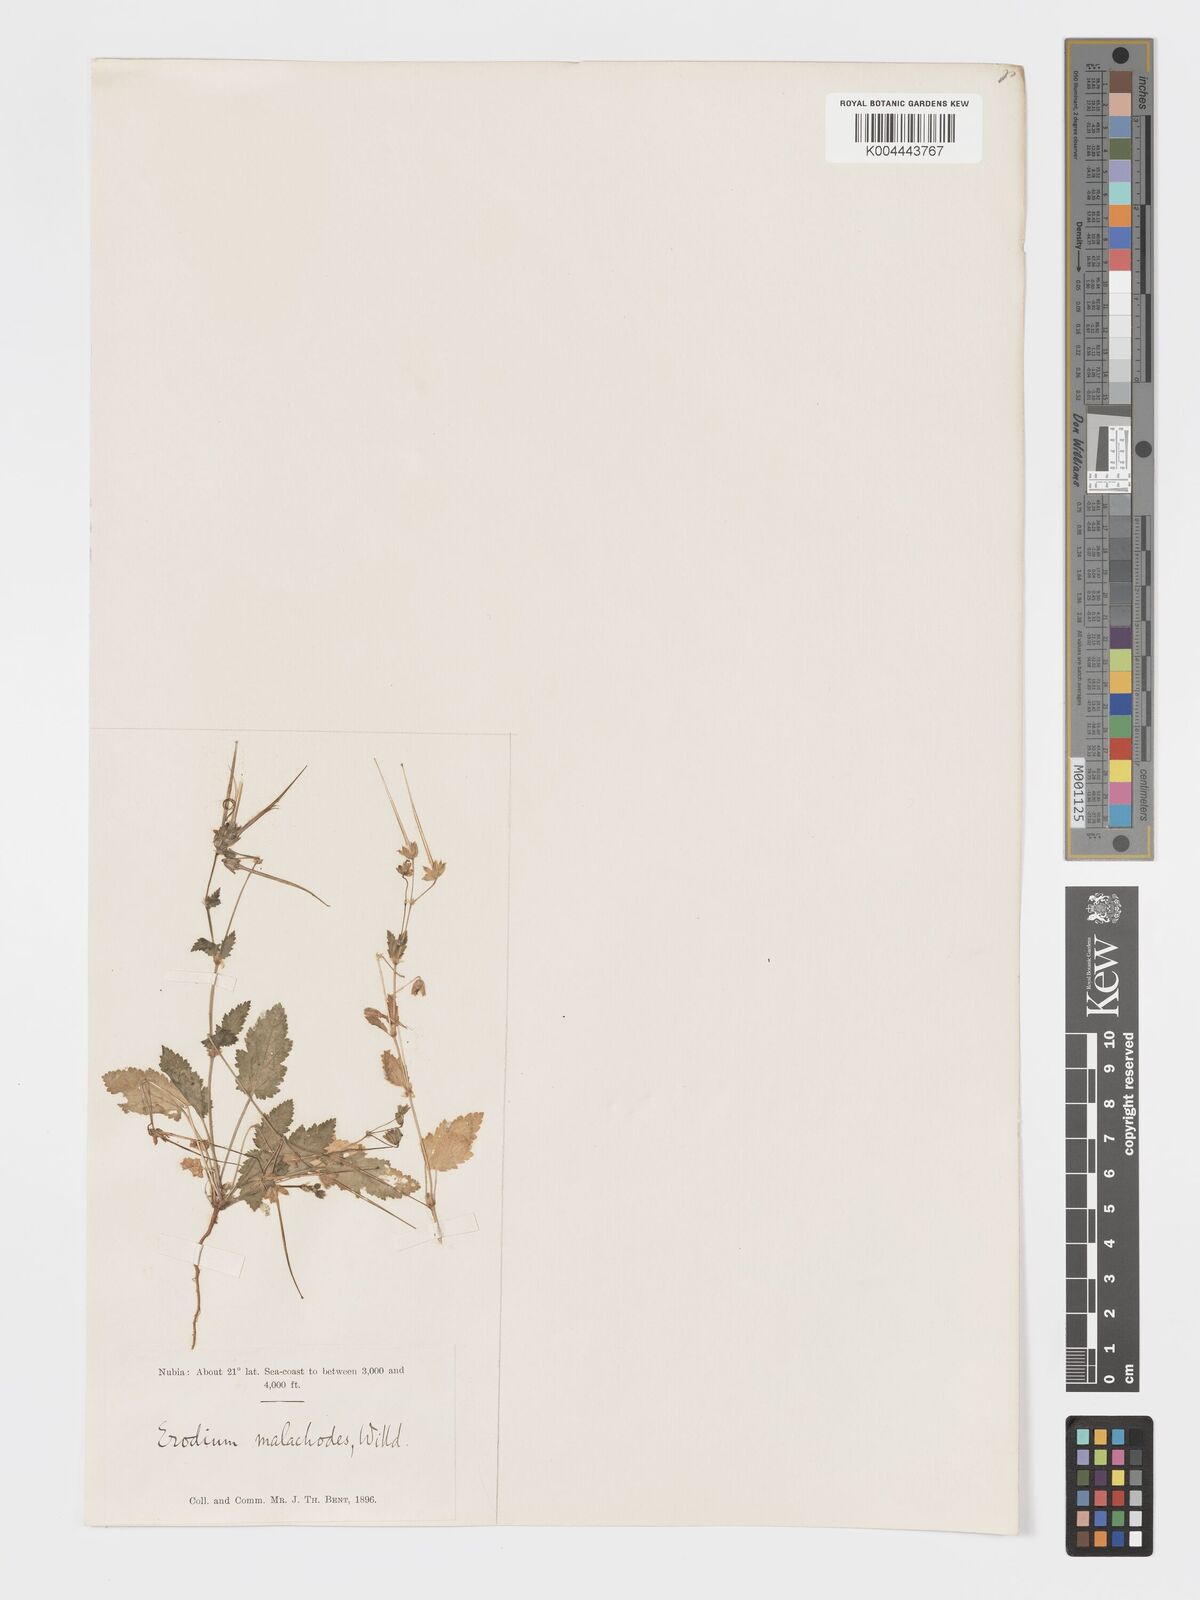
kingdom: Plantae
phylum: Tracheophyta
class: Magnoliopsida
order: Geraniales
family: Geraniaceae
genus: Erodium
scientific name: Erodium malacoides
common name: Soft stork's-bill
